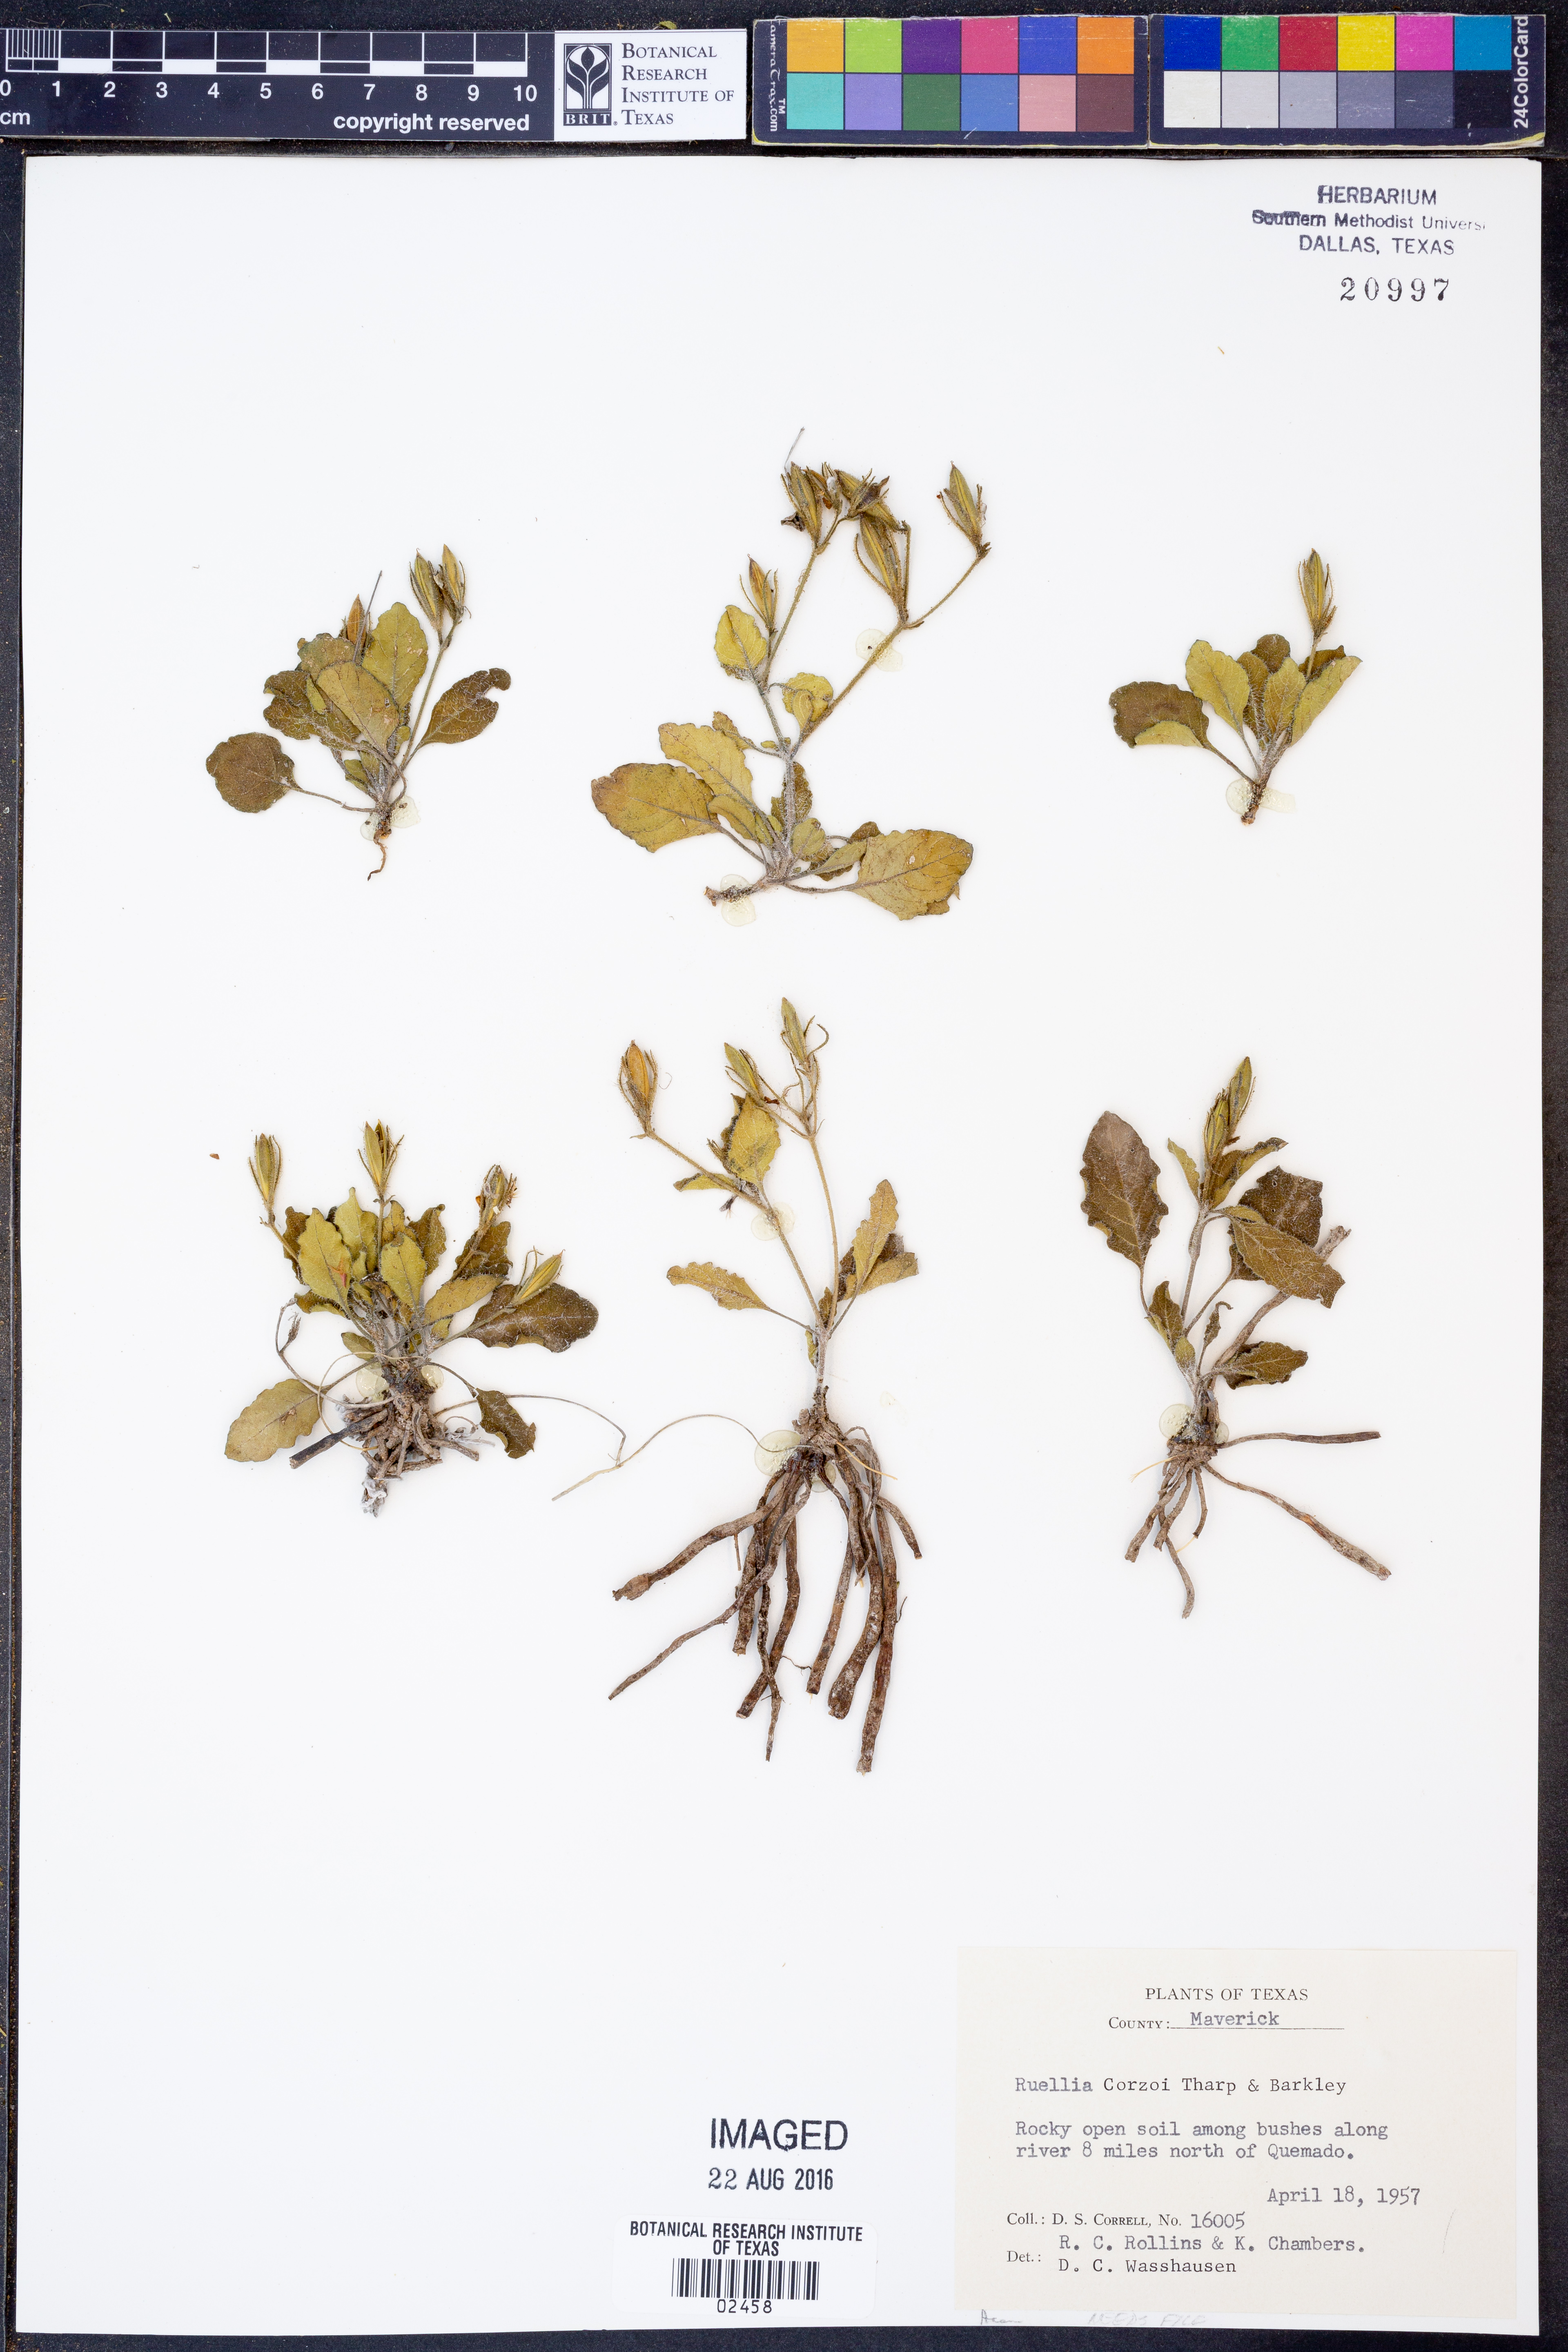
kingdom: Plantae
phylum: Tracheophyta
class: Magnoliopsida
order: Lamiales
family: Acanthaceae
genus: Ruellia
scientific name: Ruellia corzoi
